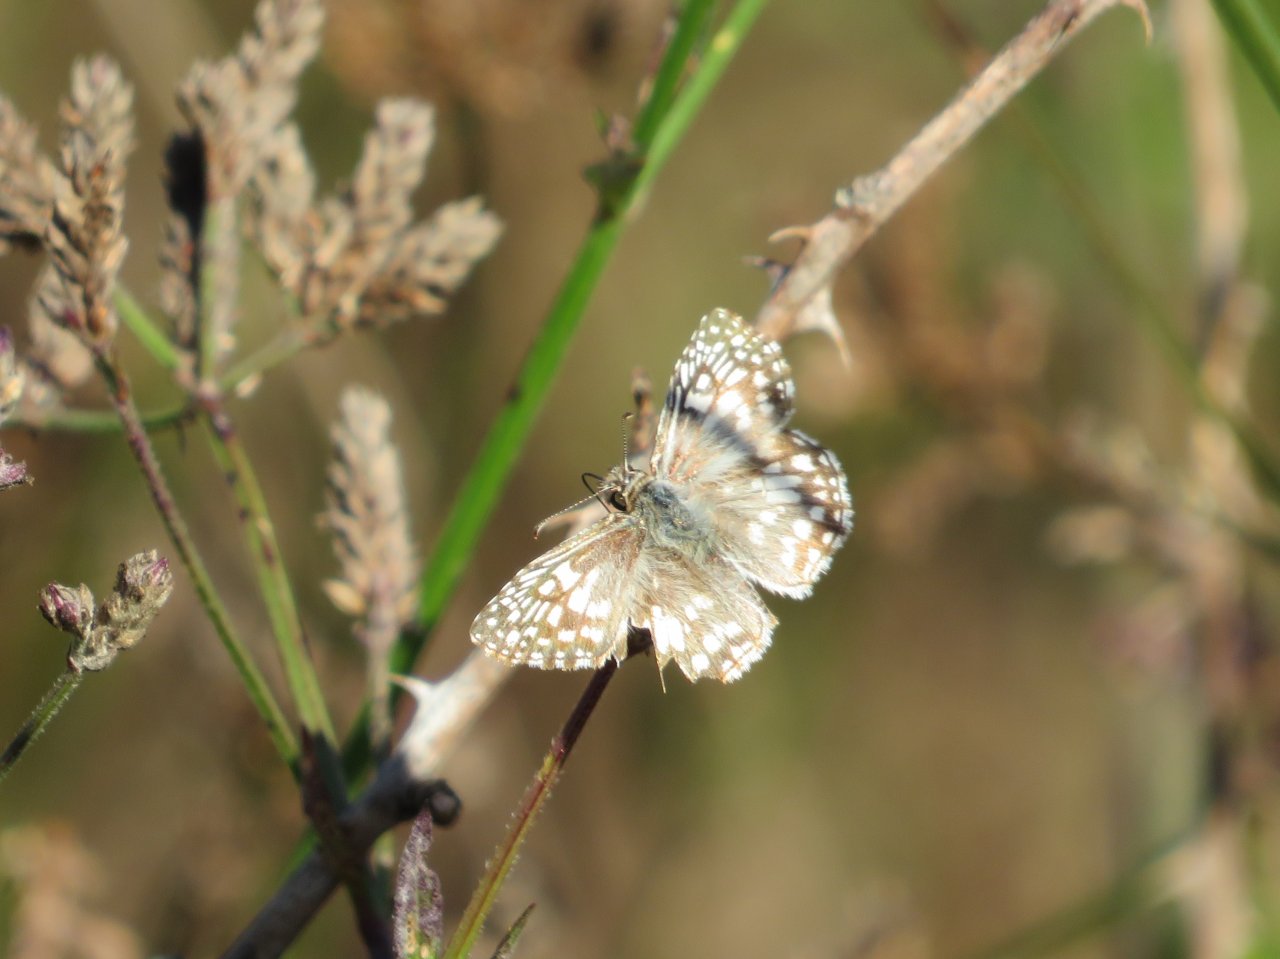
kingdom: Animalia
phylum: Arthropoda
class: Insecta
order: Lepidoptera
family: Hesperiidae
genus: Pyrgus
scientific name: Pyrgus oileus
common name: Tropical Checkered-Skipper
